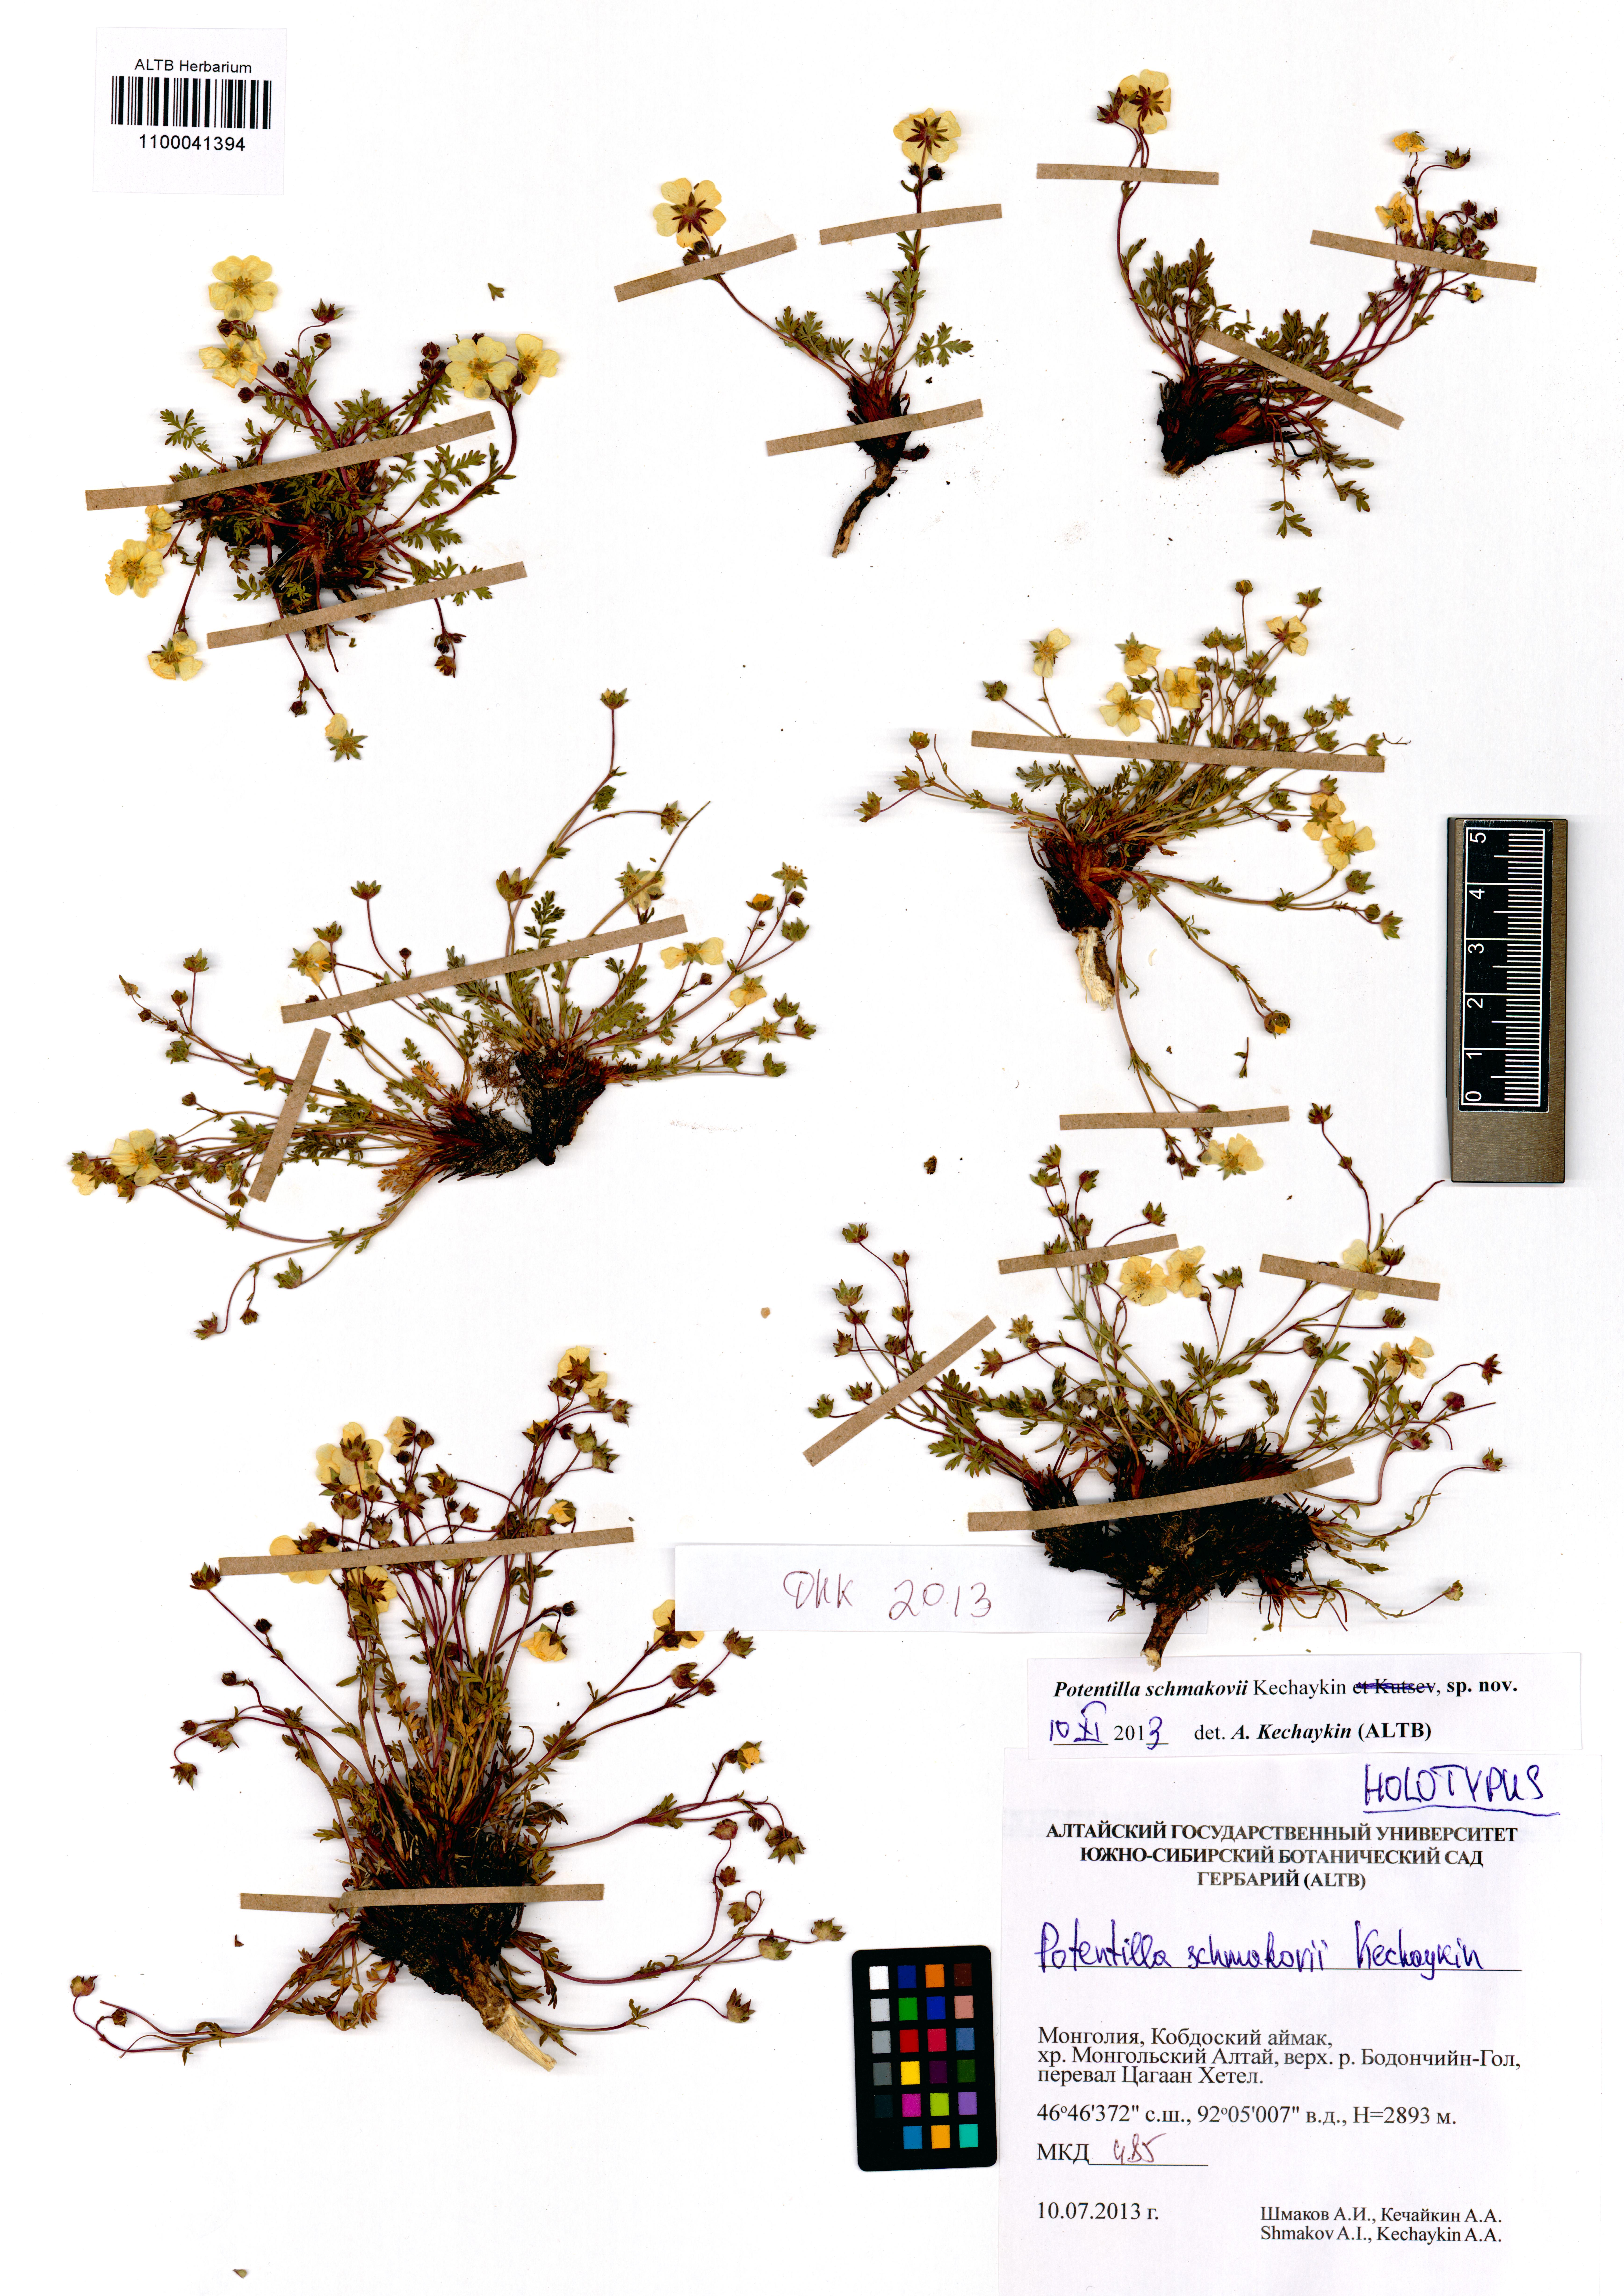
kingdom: Plantae
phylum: Tracheophyta
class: Magnoliopsida
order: Rosales
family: Rosaceae
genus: Potentilla
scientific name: Potentilla schmakovii
